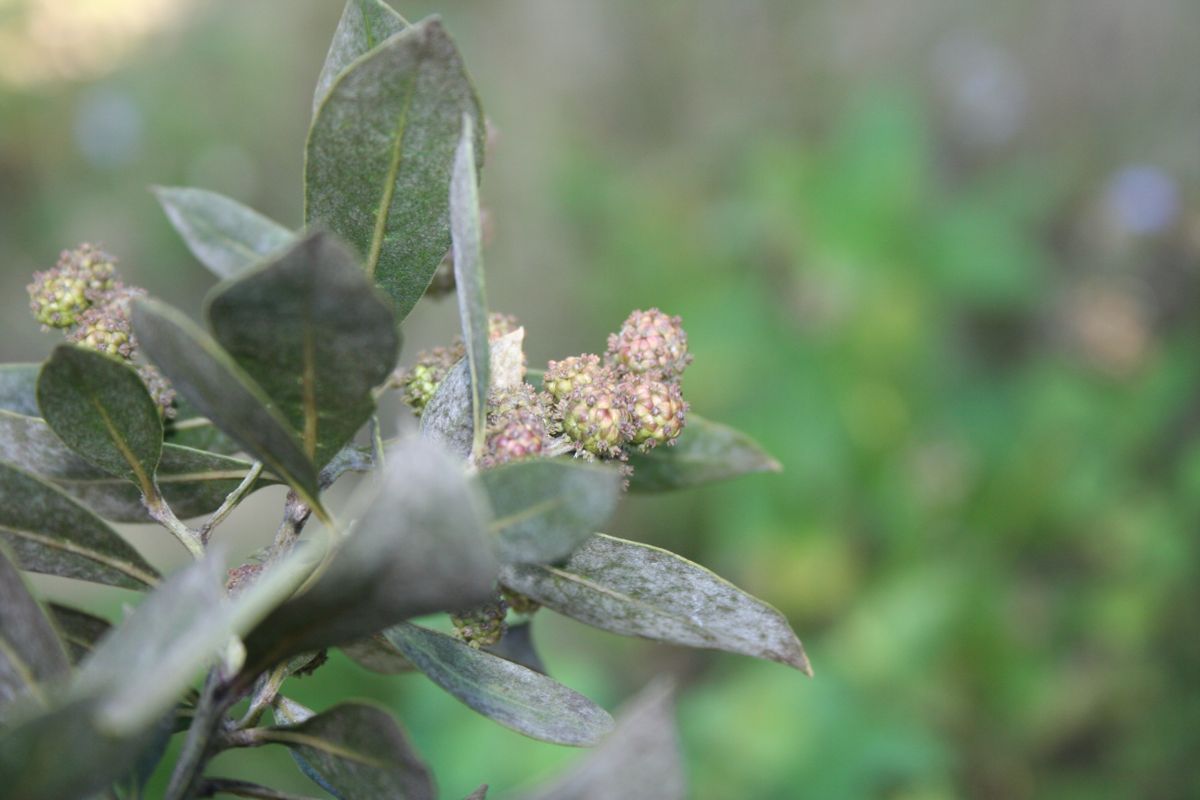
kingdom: Plantae
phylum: Tracheophyta
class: Magnoliopsida
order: Myrtales
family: Combretaceae
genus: Conocarpus
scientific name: Conocarpus erectus
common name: Button mangrove
